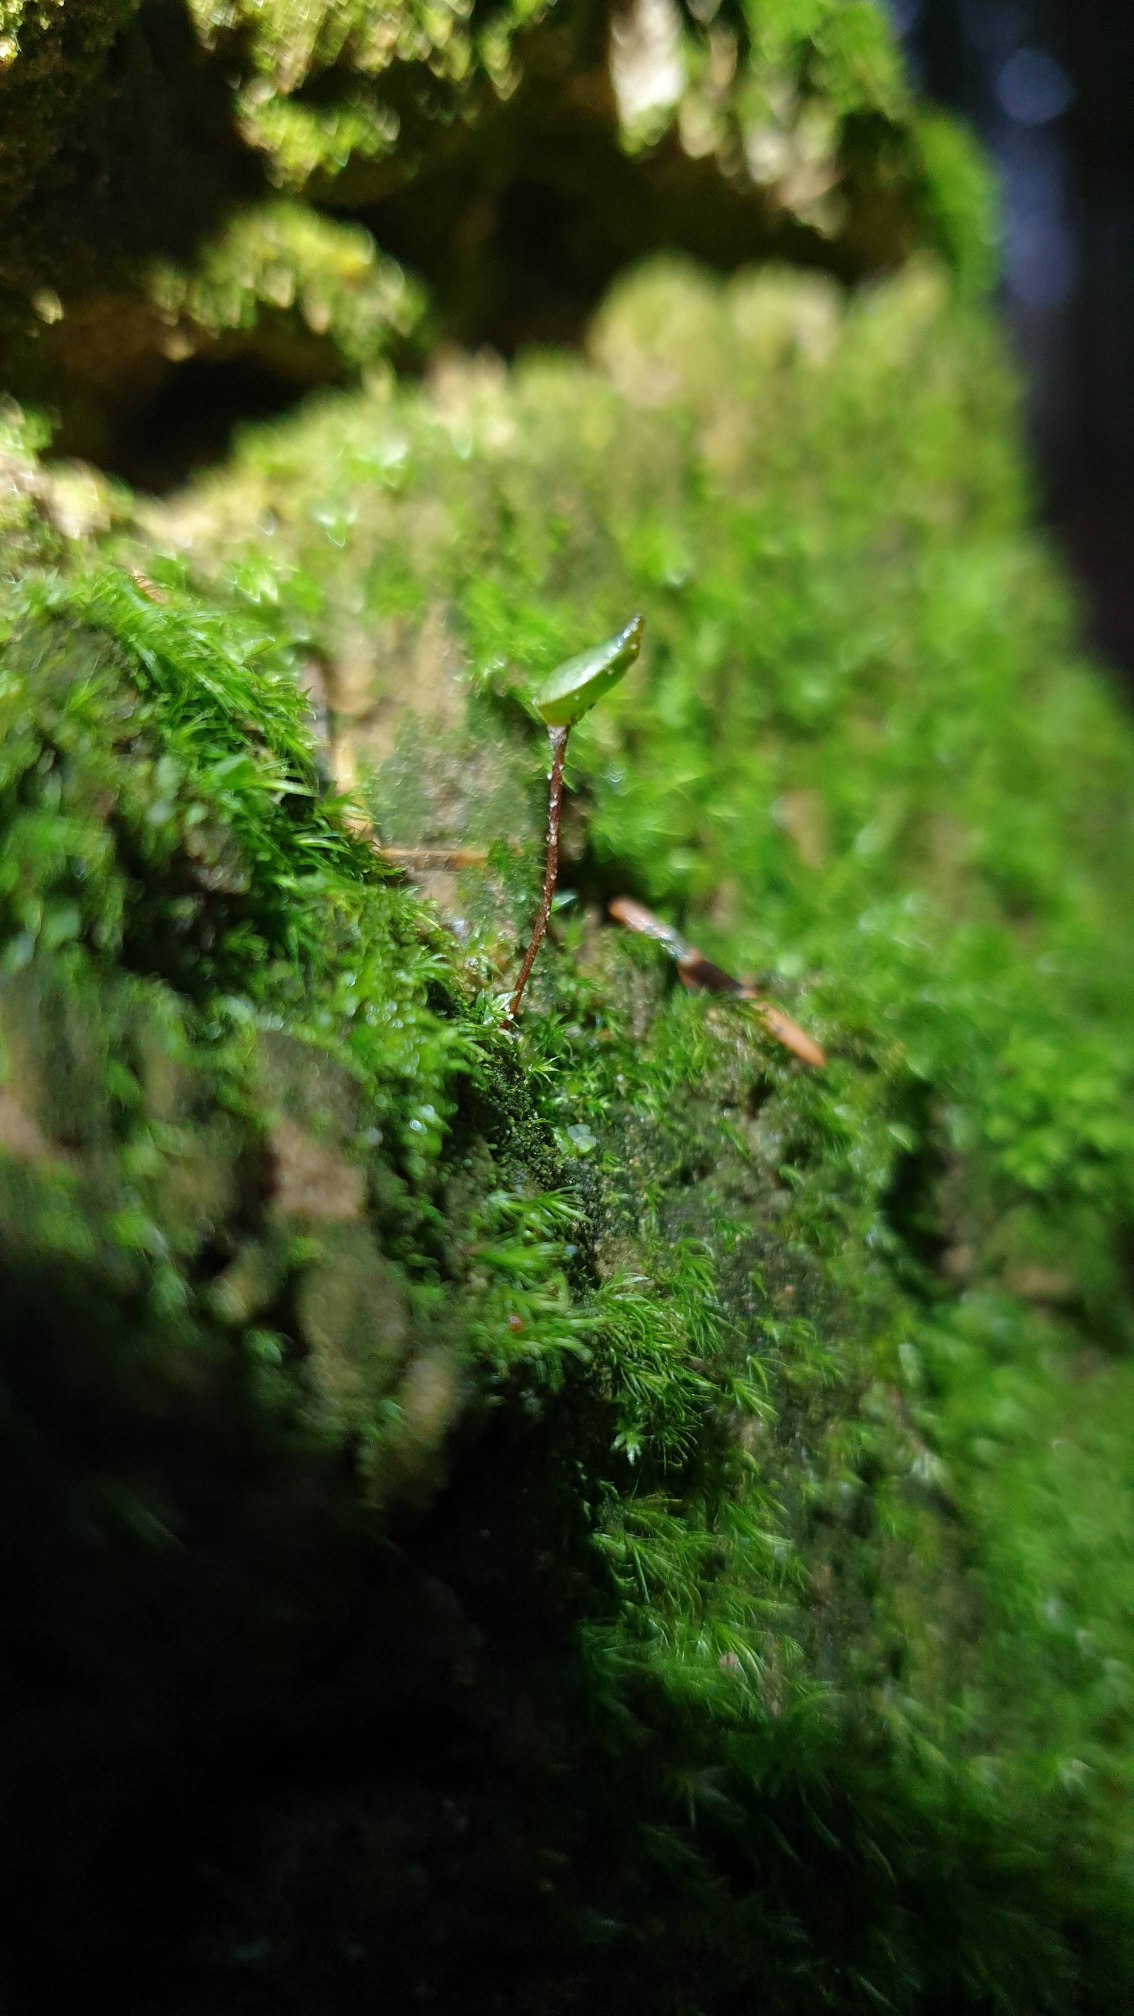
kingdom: Plantae
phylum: Bryophyta
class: Bryopsida
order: Buxbaumiales
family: Buxbaumiaceae
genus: Buxbaumia
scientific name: Buxbaumia aphylla
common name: Rundkapslet buxbaumia
